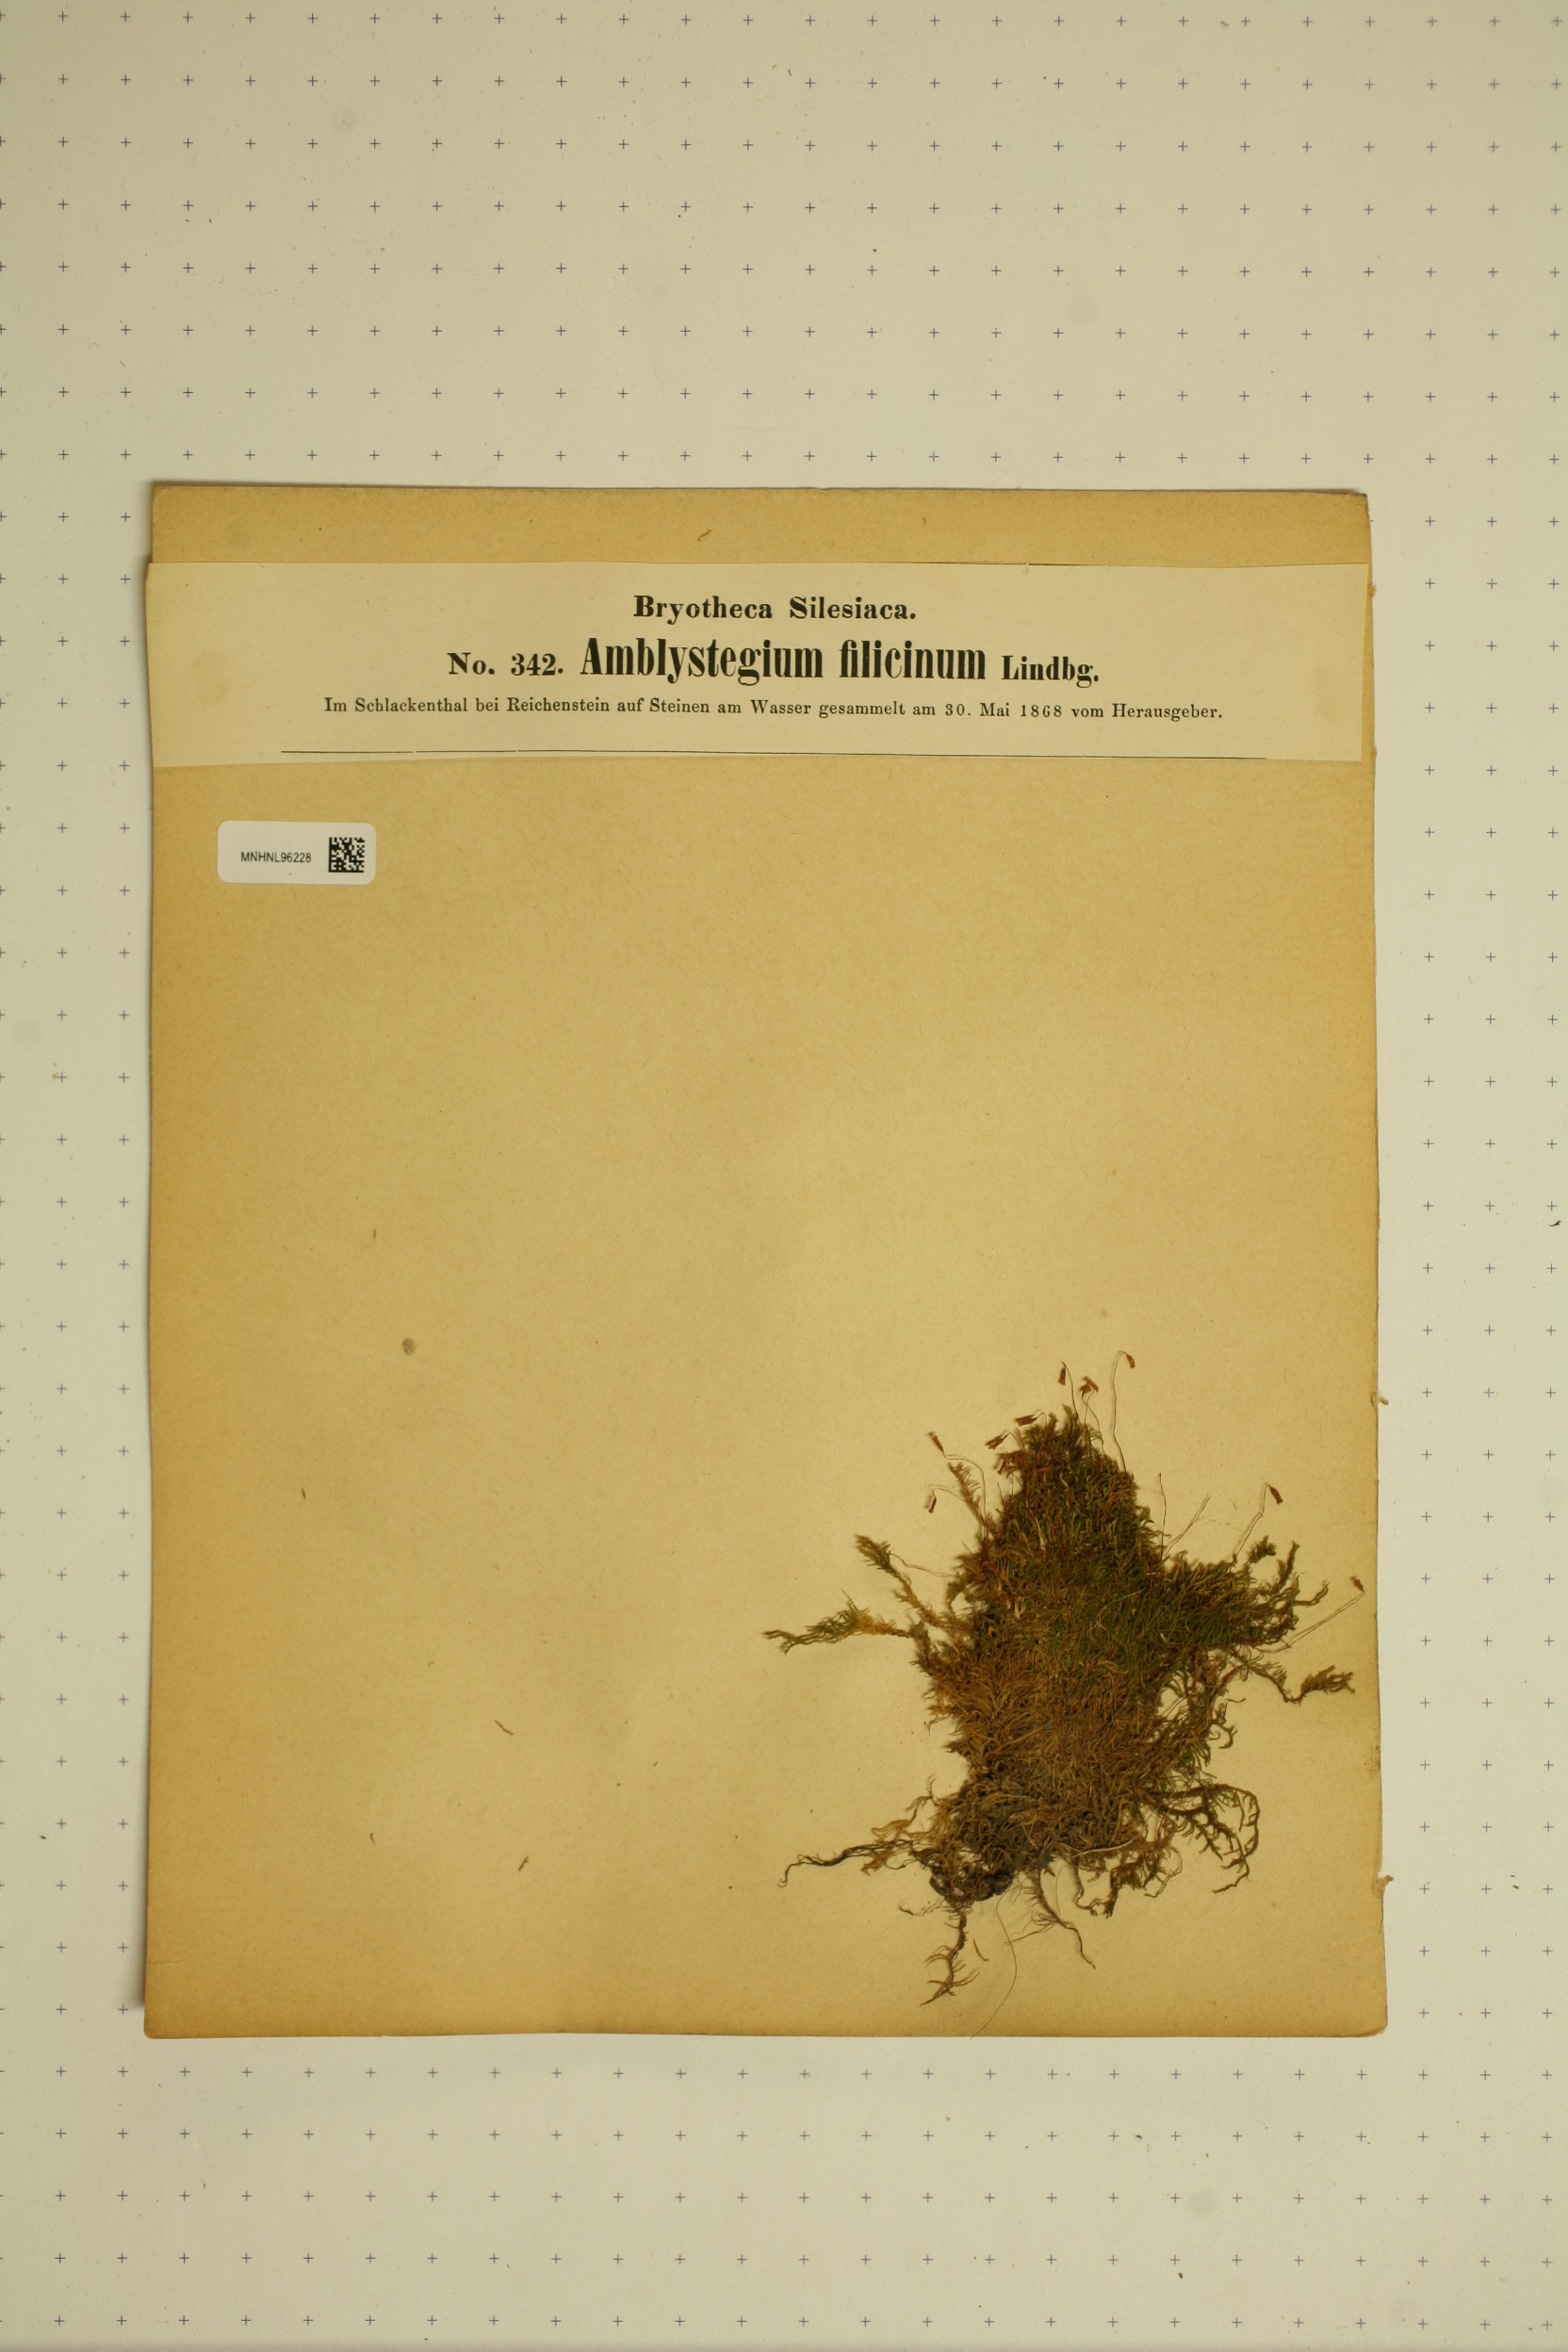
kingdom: Plantae
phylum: Bryophyta
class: Bryopsida
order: Hypnales
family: Amblystegiaceae
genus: Cratoneuron
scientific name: Cratoneuron filicinum
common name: Fern-leaved hook moss
